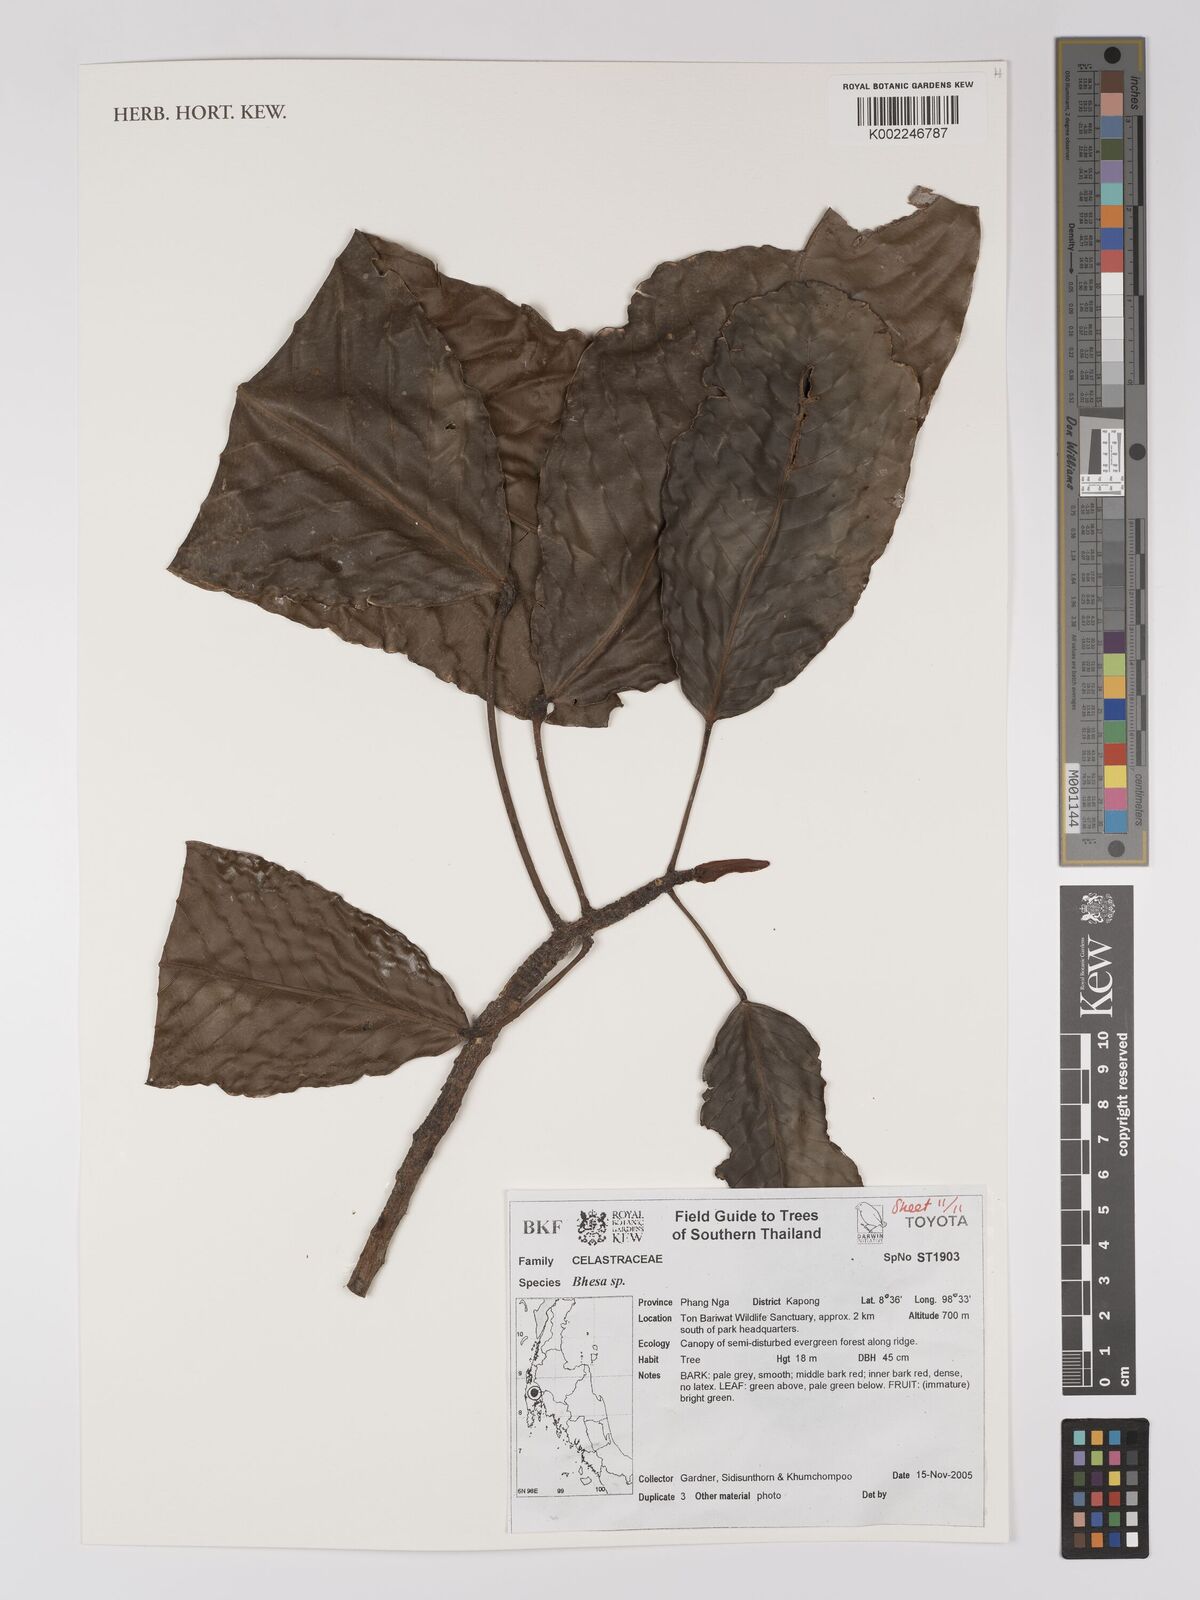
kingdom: Plantae
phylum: Tracheophyta
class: Magnoliopsida
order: Malpighiales
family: Centroplacaceae
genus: Bhesa
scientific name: Bhesa
